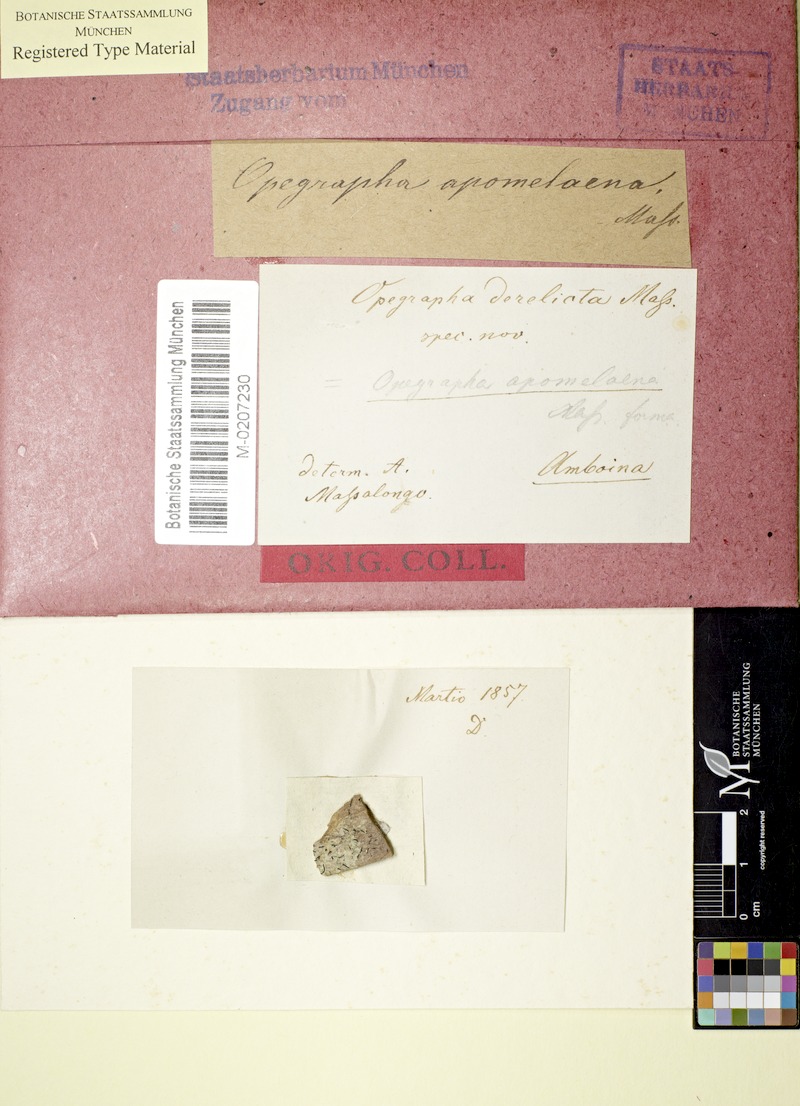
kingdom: Fungi
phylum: Ascomycota
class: Arthoniomycetes
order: Arthoniales
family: Lecanographaceae
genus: Alyxoria
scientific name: Alyxoria apomelaena
